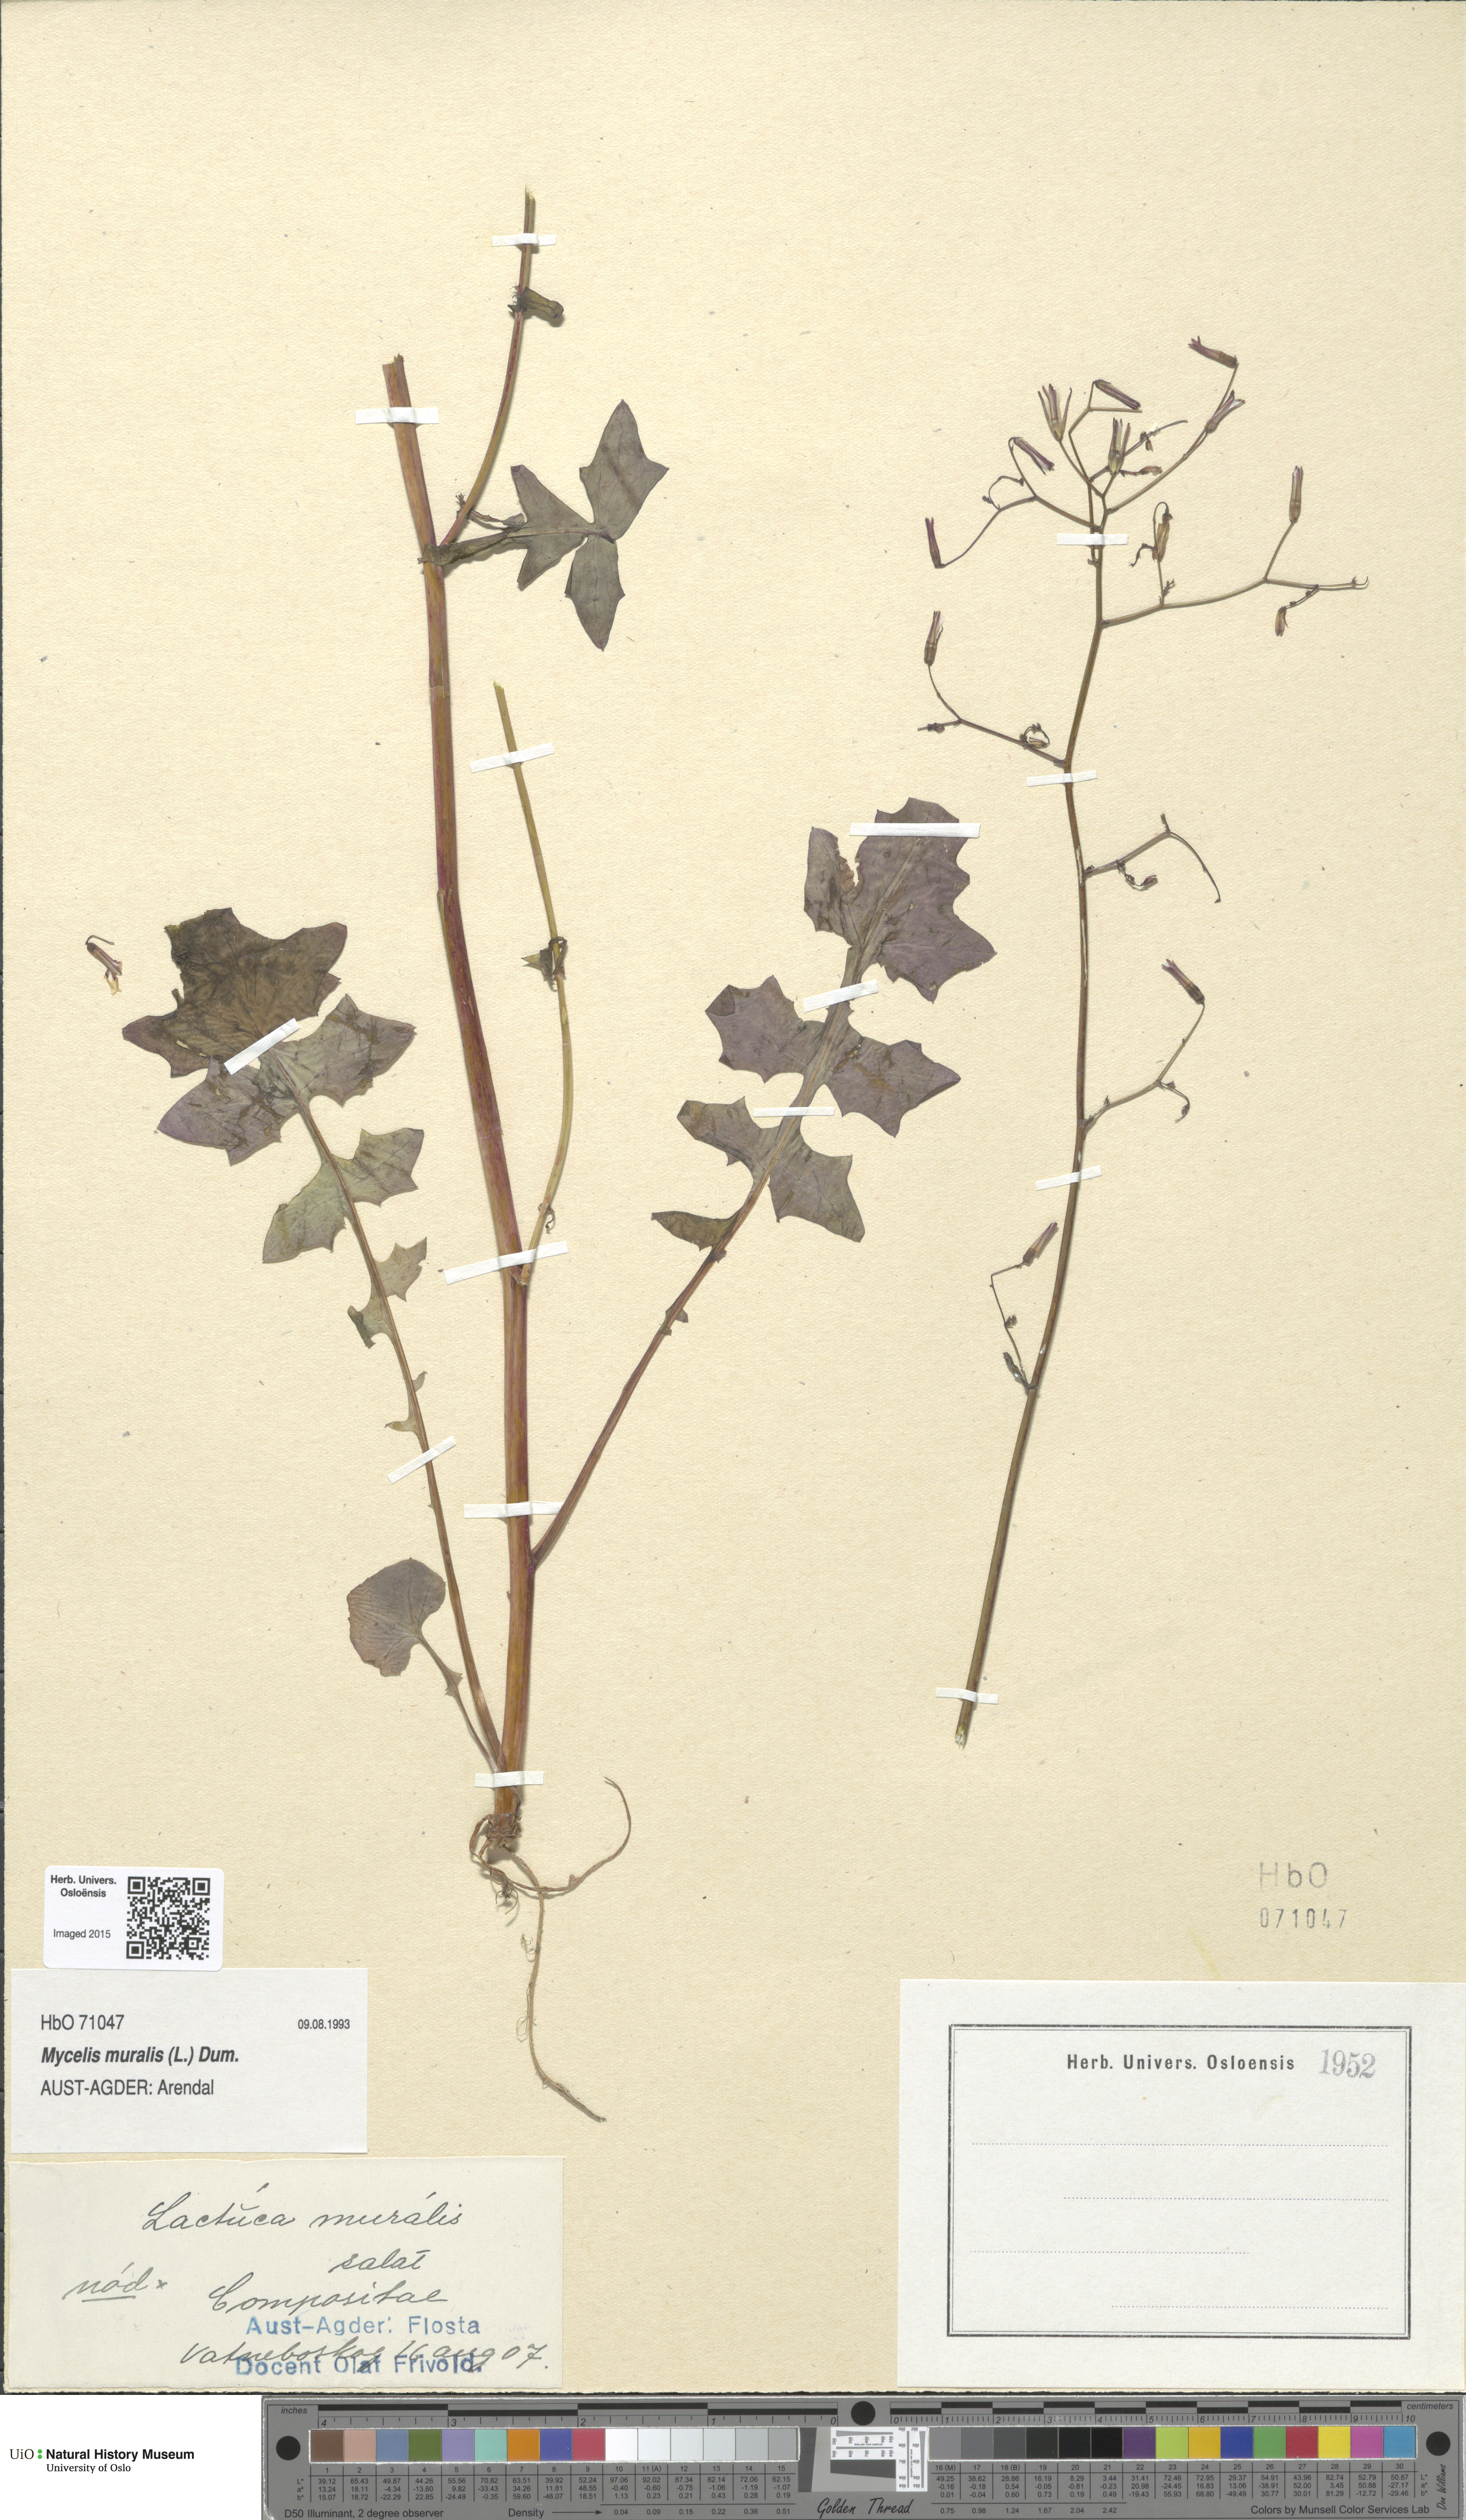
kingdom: Plantae
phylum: Tracheophyta
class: Magnoliopsida
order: Asterales
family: Asteraceae
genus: Mycelis
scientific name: Mycelis muralis
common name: Wall lettuce
